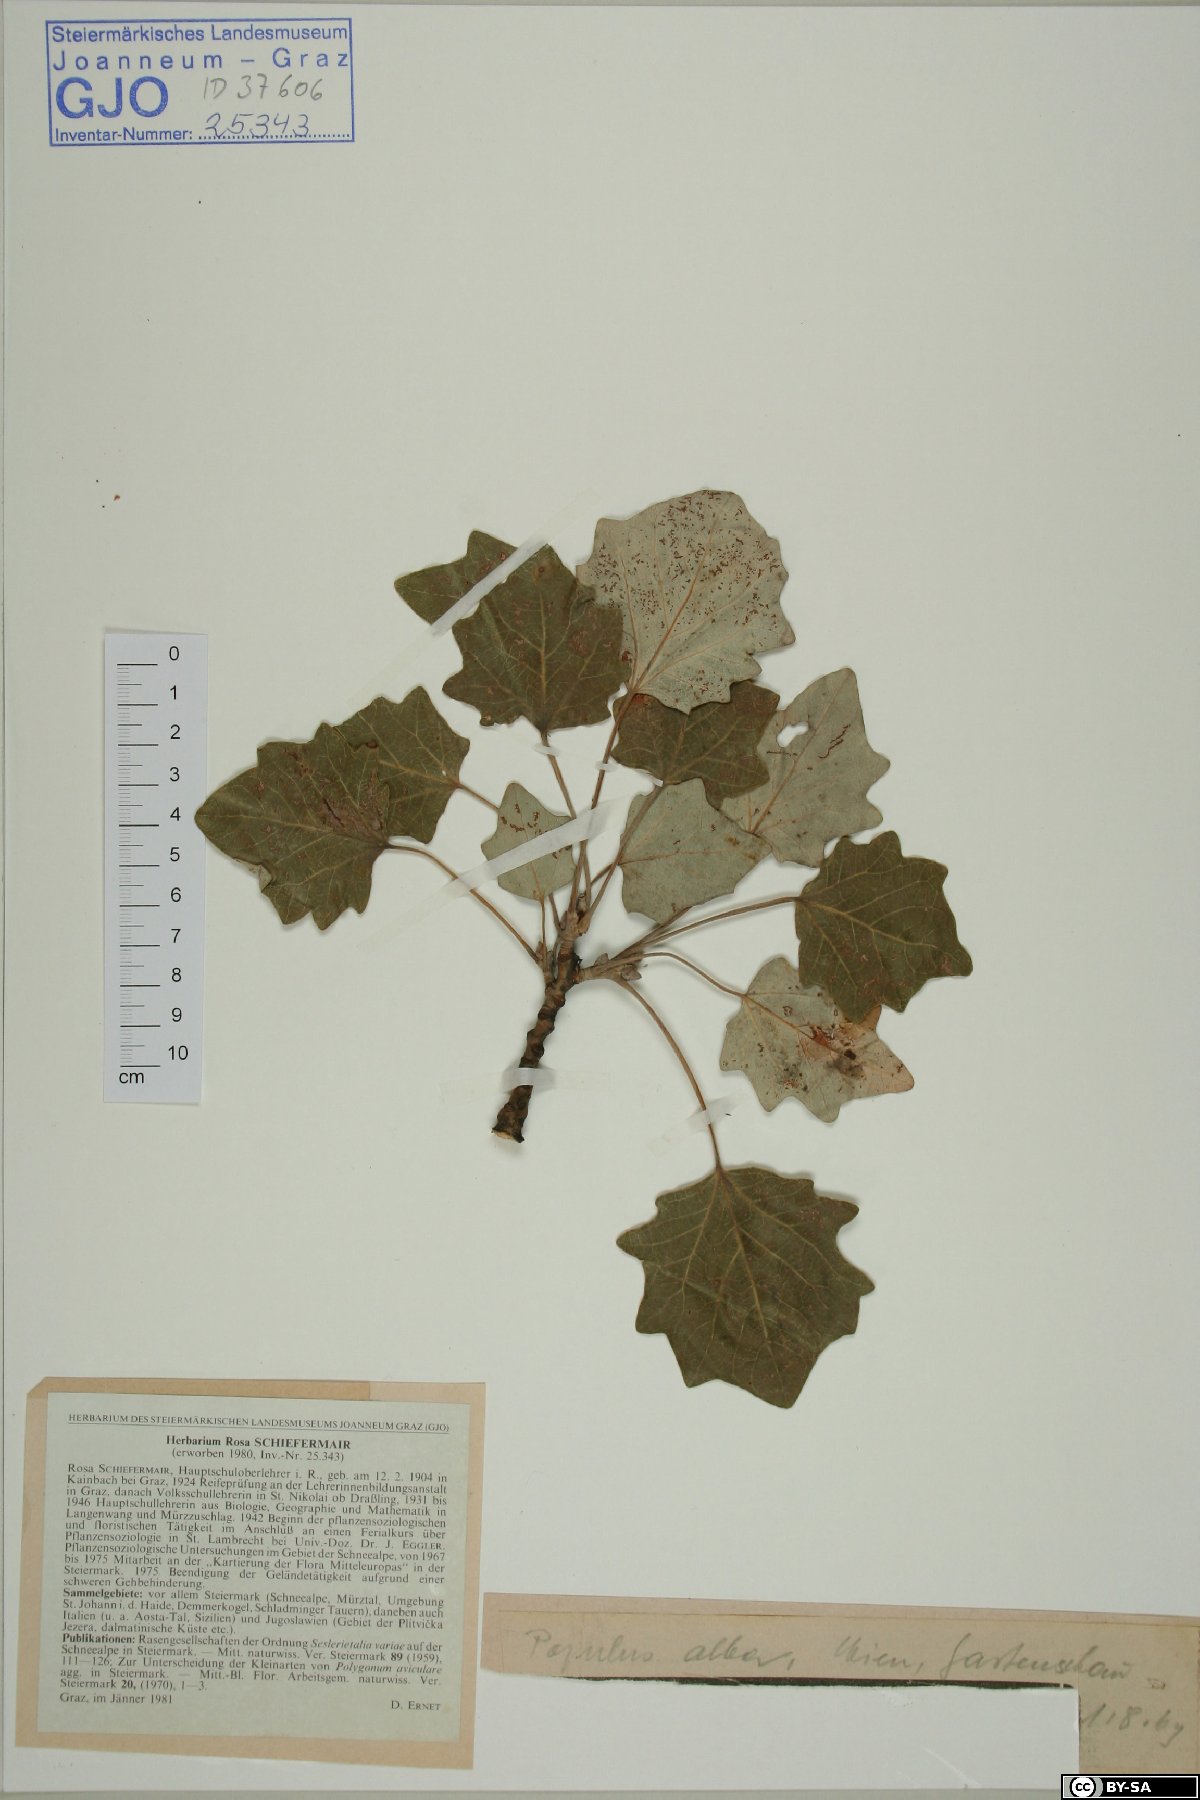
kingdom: Plantae
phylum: Tracheophyta
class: Magnoliopsida
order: Malpighiales
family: Salicaceae
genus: Populus
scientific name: Populus alba
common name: White poplar
